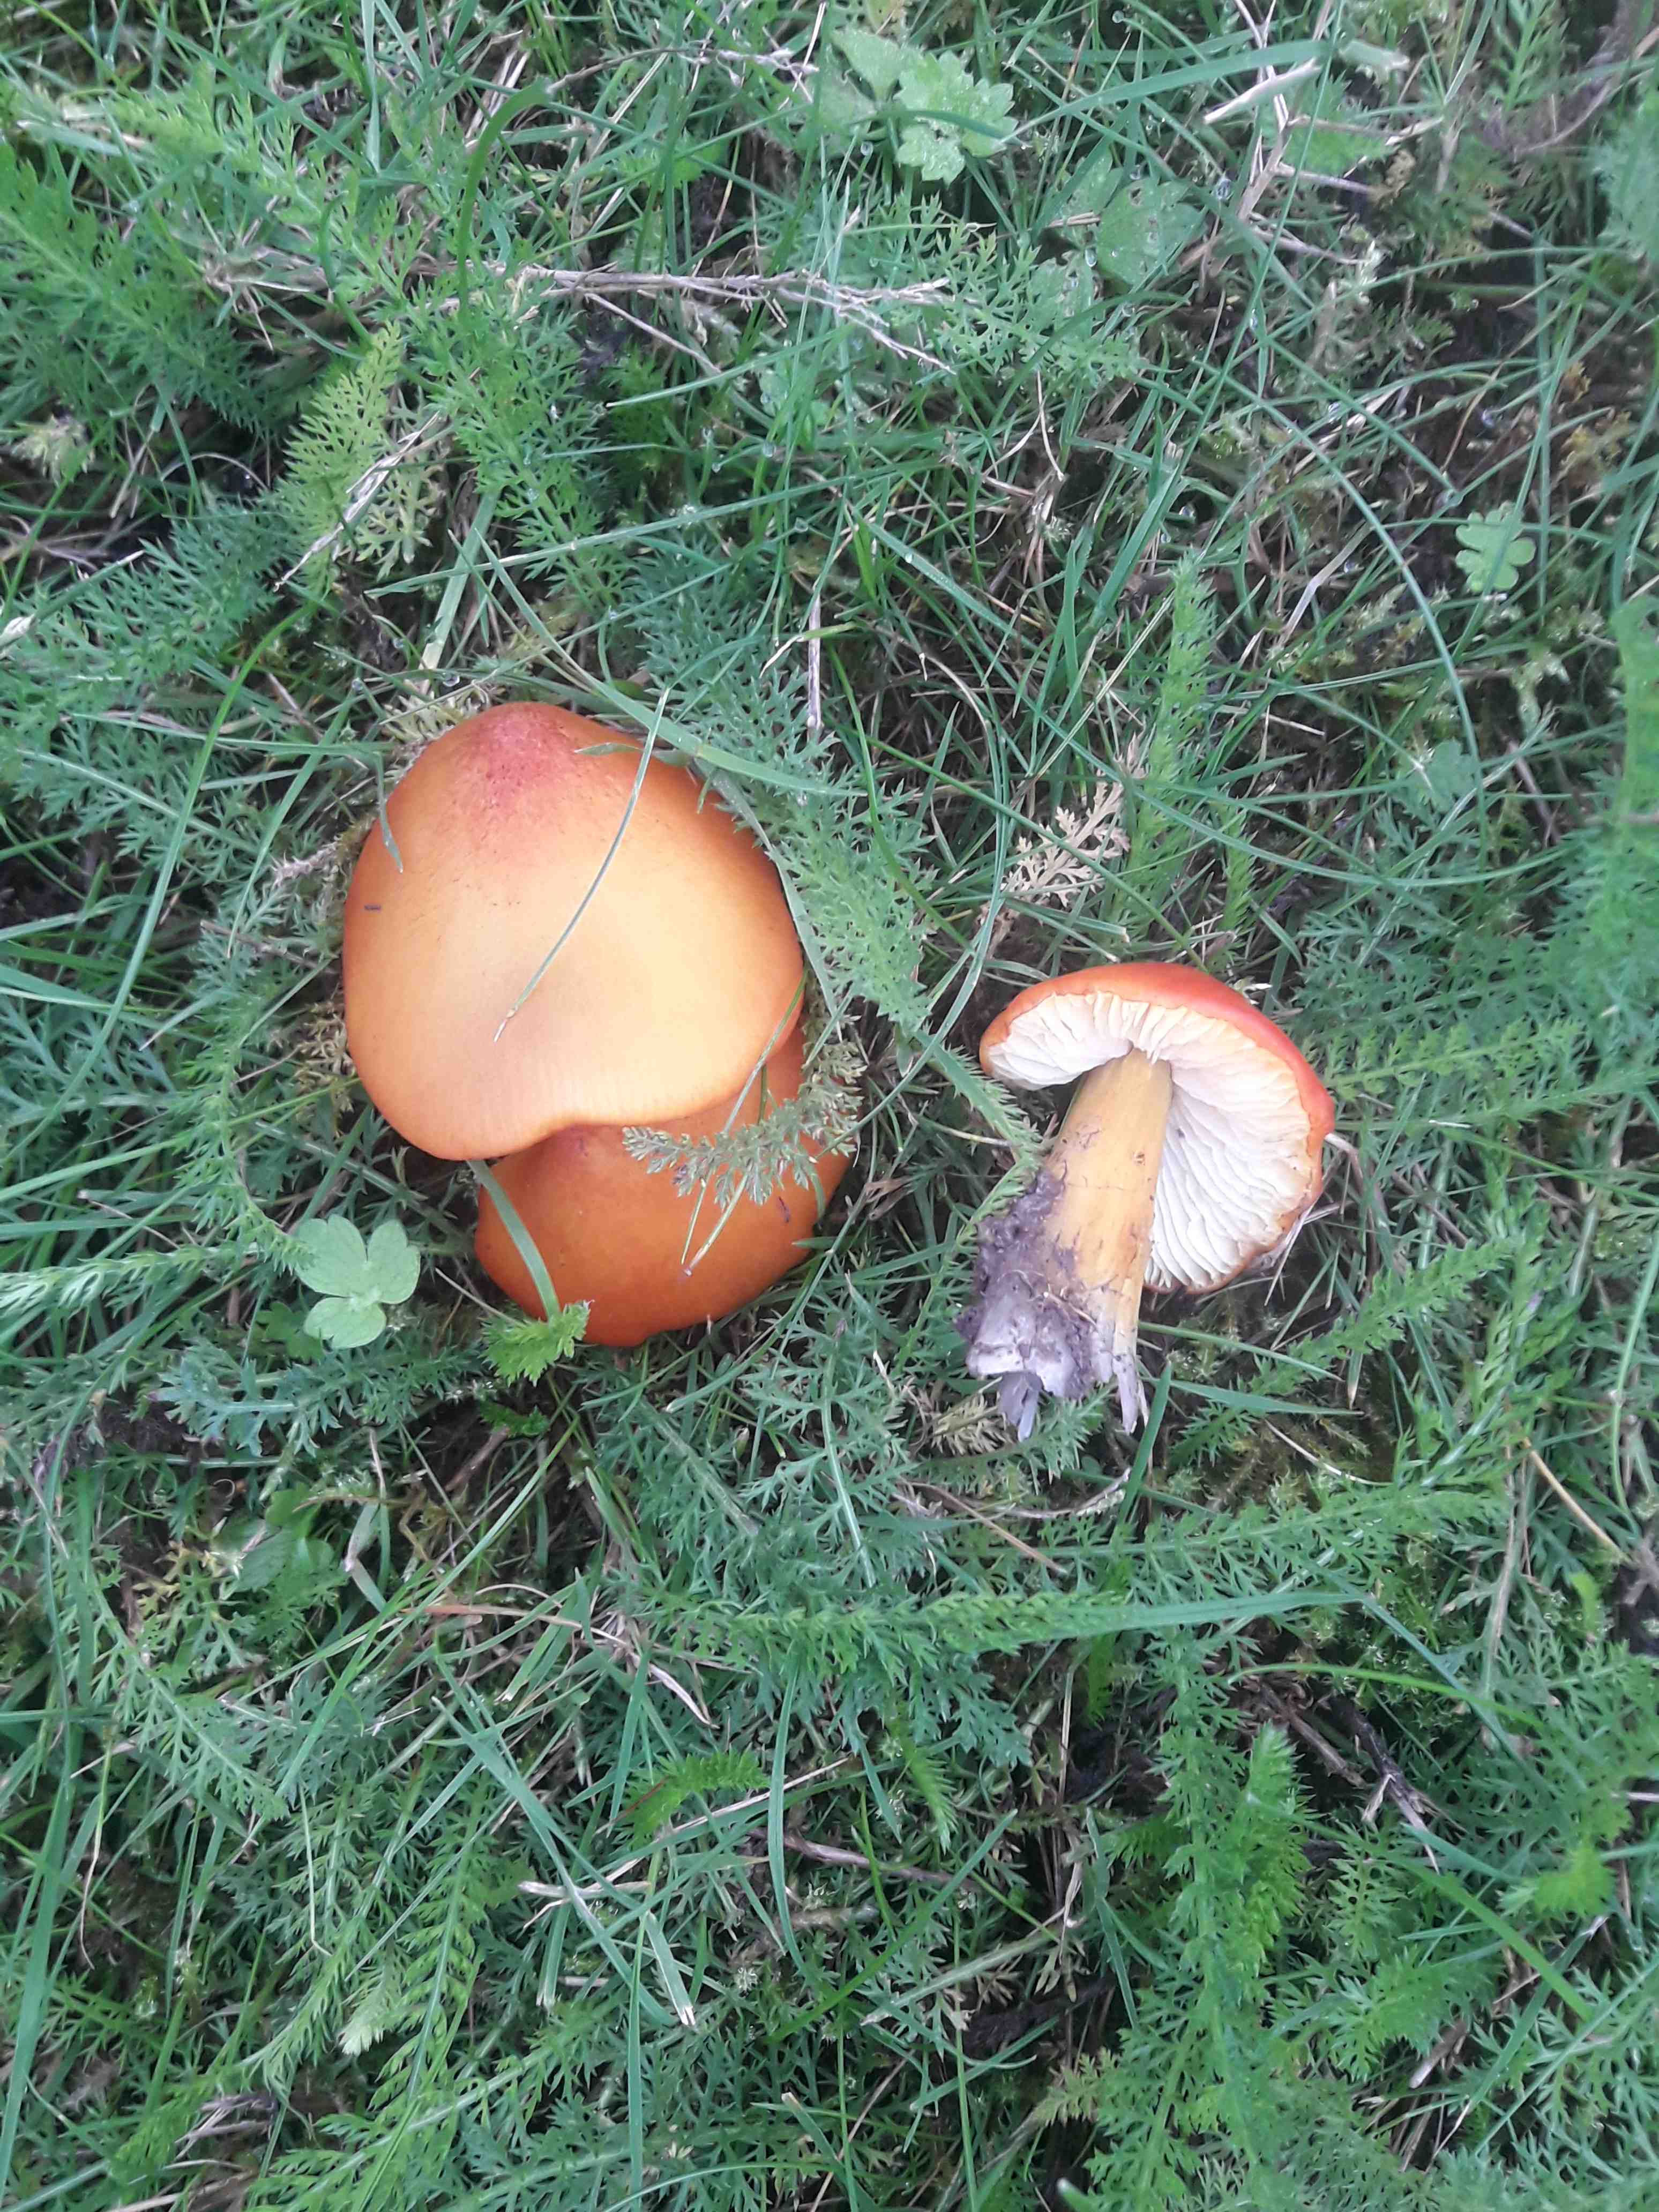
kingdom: Fungi
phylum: Basidiomycota
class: Agaricomycetes
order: Agaricales
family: Hygrophoraceae
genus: Hygrocybe
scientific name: Hygrocybe conica
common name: kegle-vokshat
